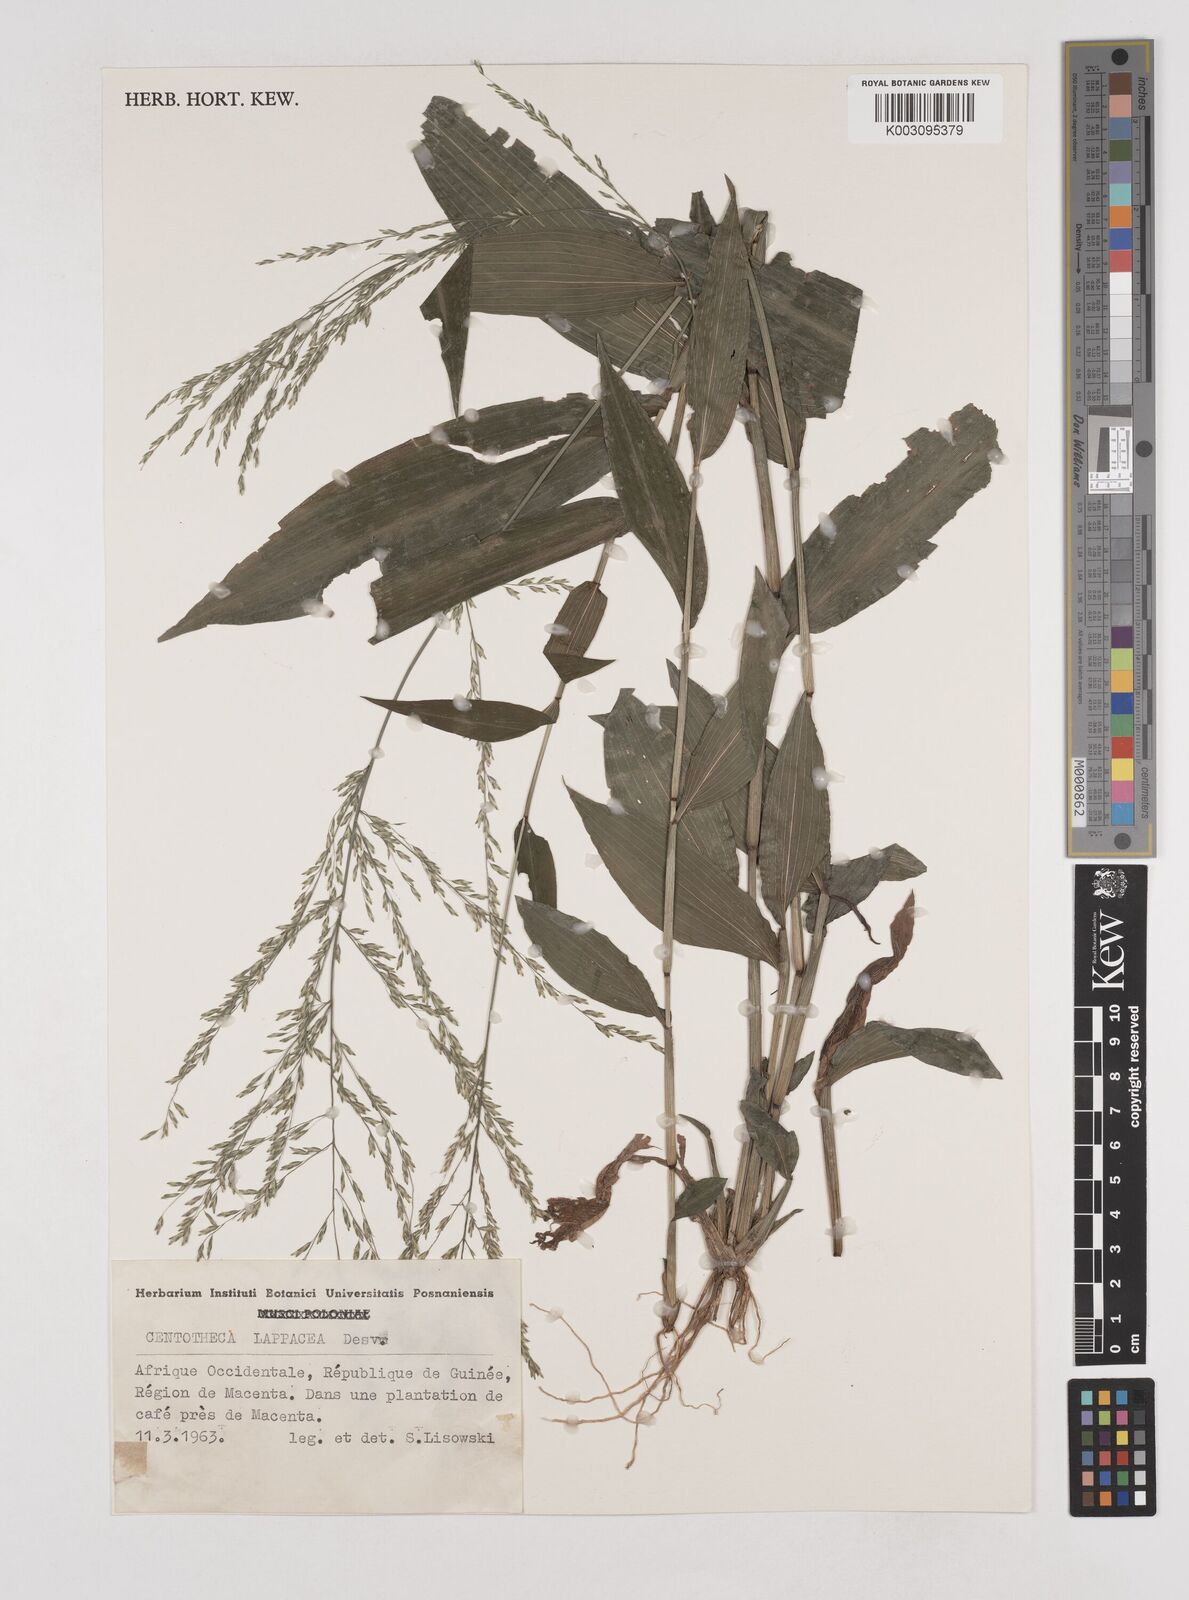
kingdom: Plantae
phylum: Tracheophyta
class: Liliopsida
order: Poales
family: Poaceae
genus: Centotheca
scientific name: Centotheca lappacea
